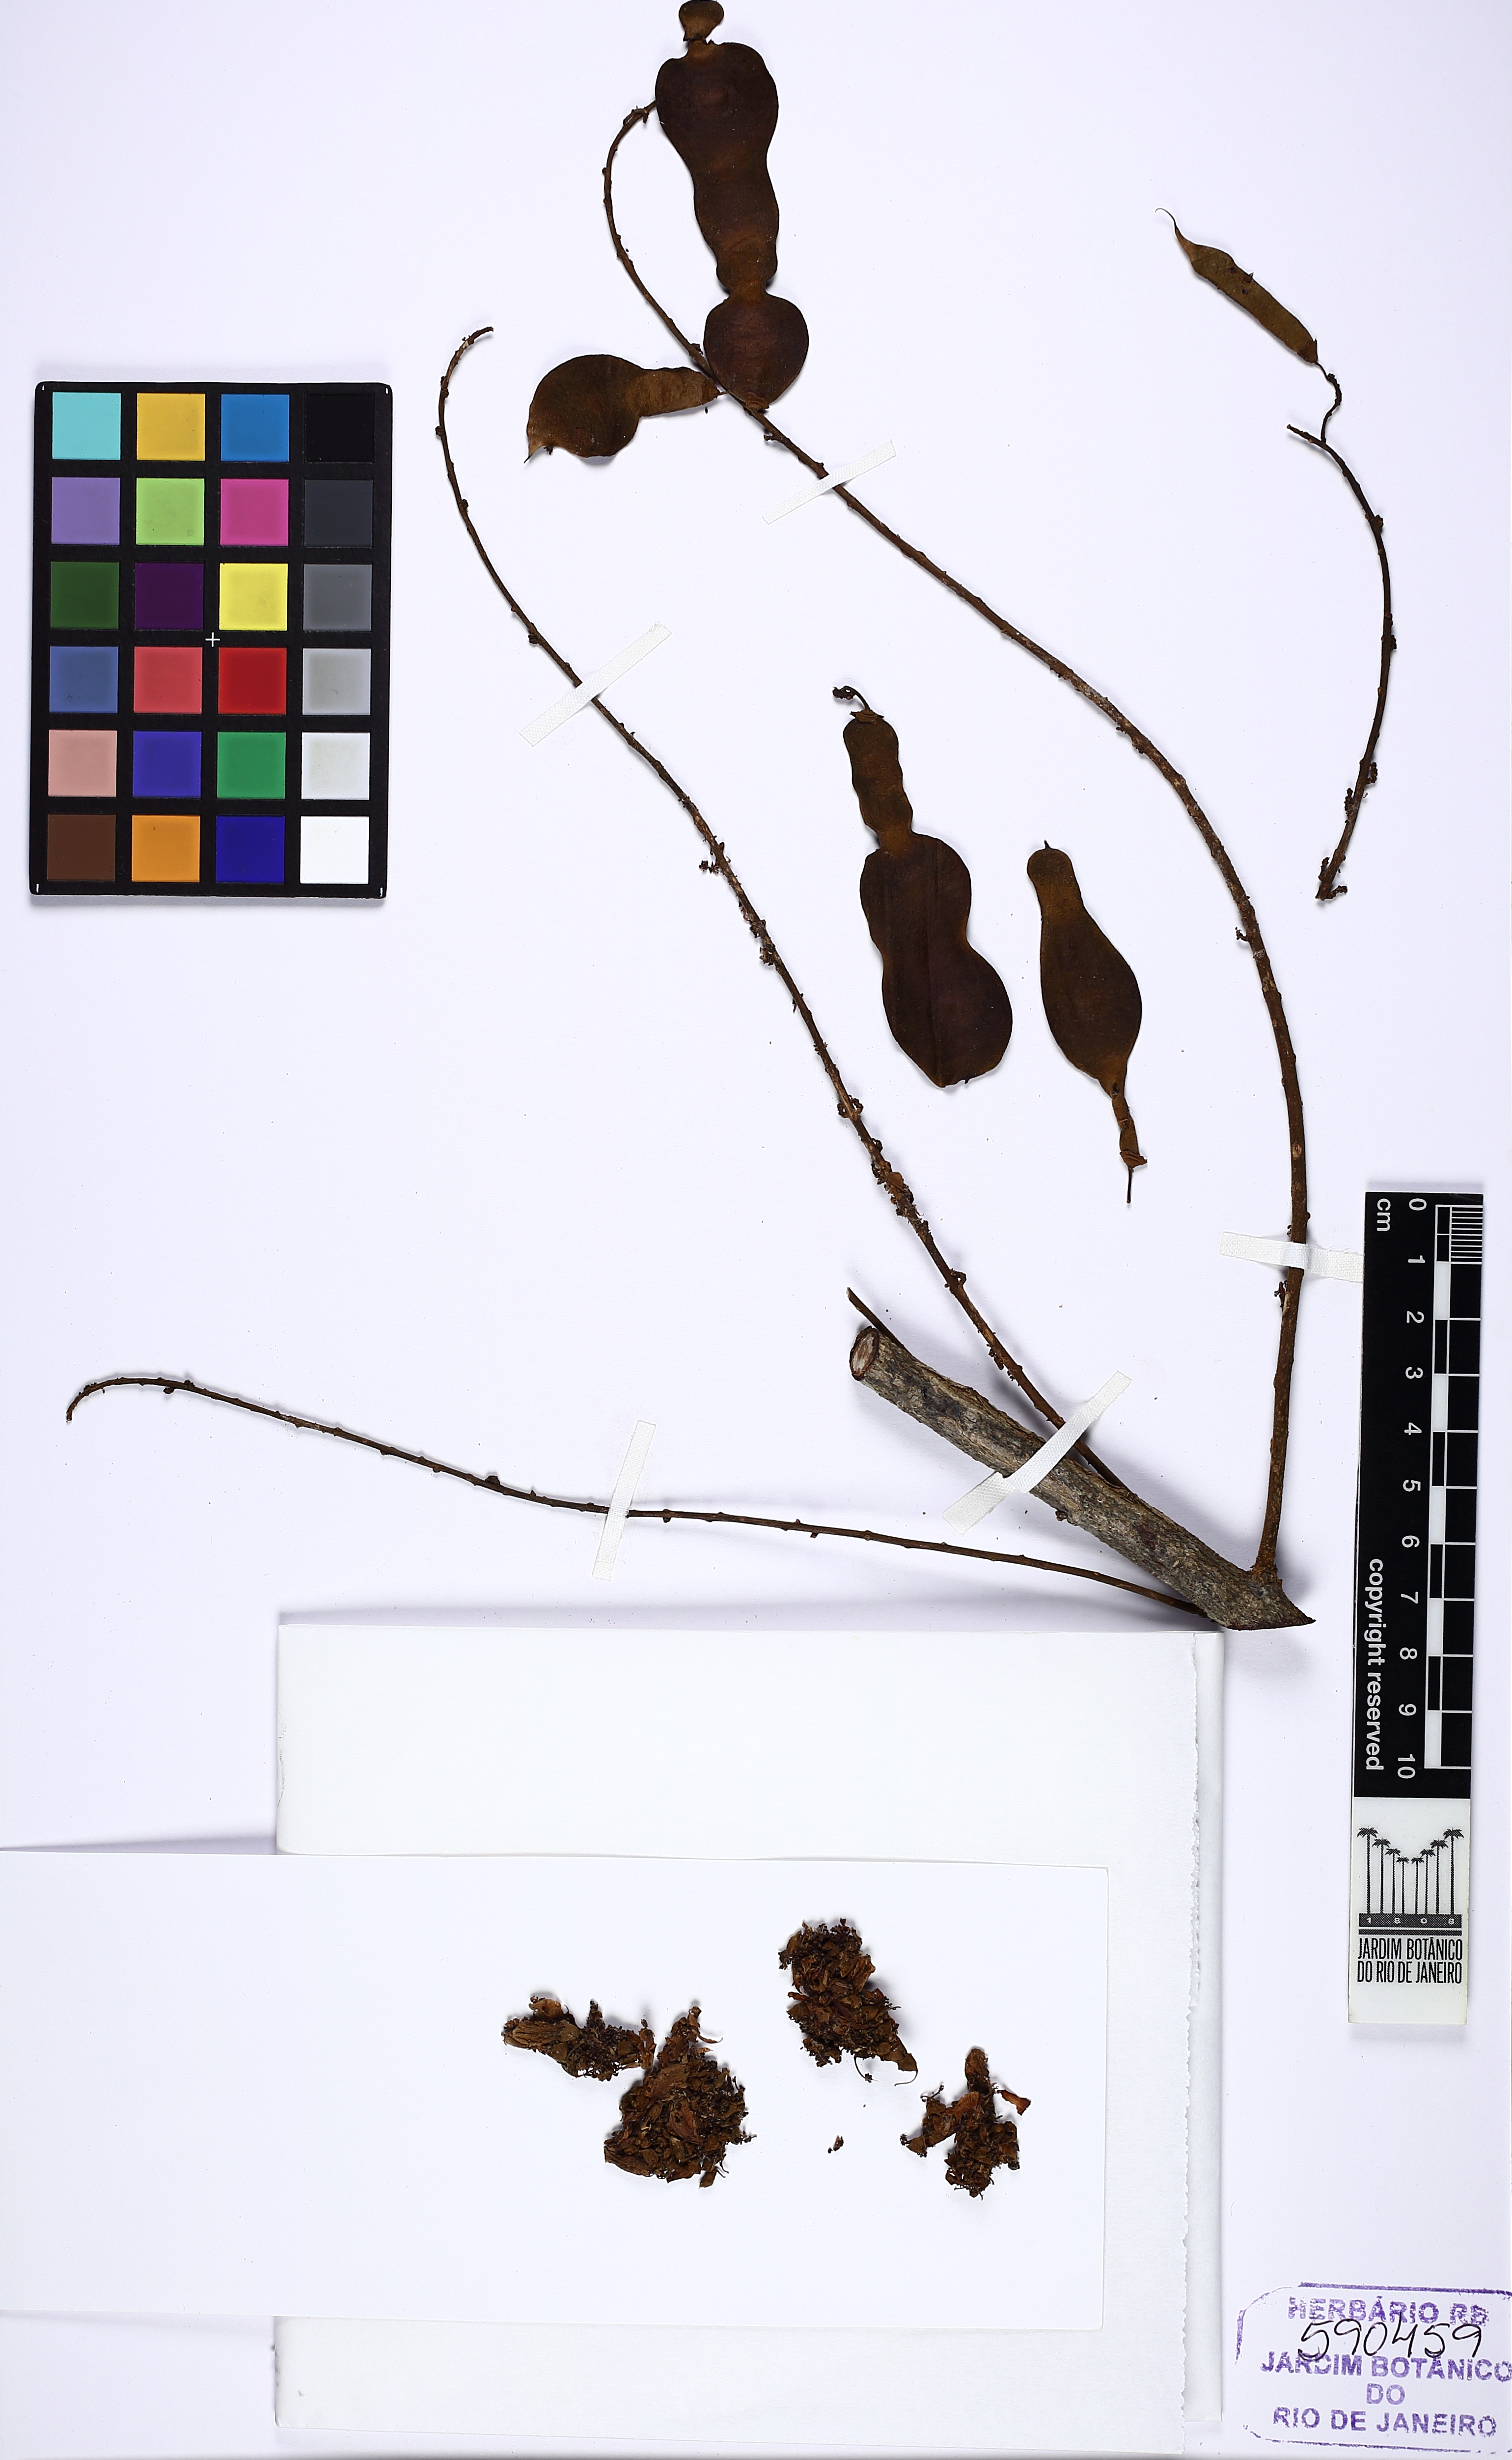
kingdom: Plantae
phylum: Tracheophyta
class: Magnoliopsida
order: Fabales
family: Fabaceae
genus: Deguelia
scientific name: Deguelia costata
